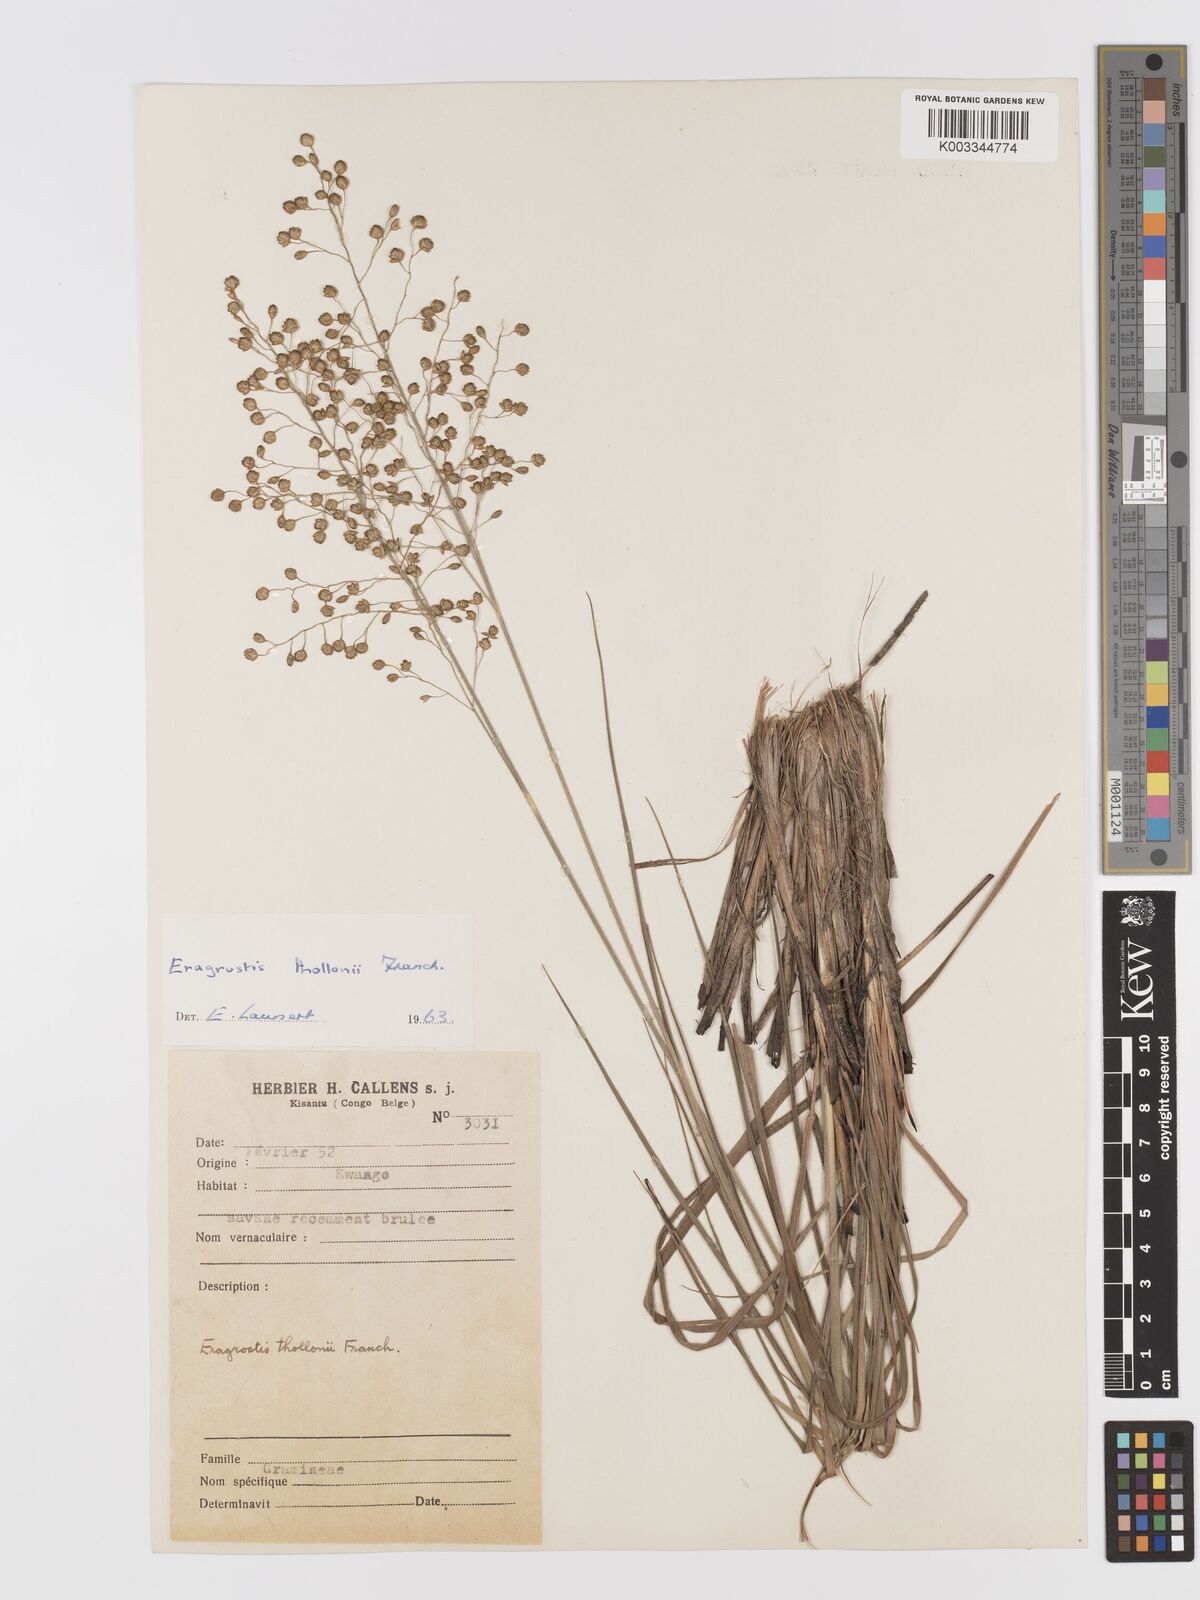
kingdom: Plantae
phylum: Tracheophyta
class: Liliopsida
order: Poales
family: Poaceae
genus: Eragrostis
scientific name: Eragrostis thollonii
